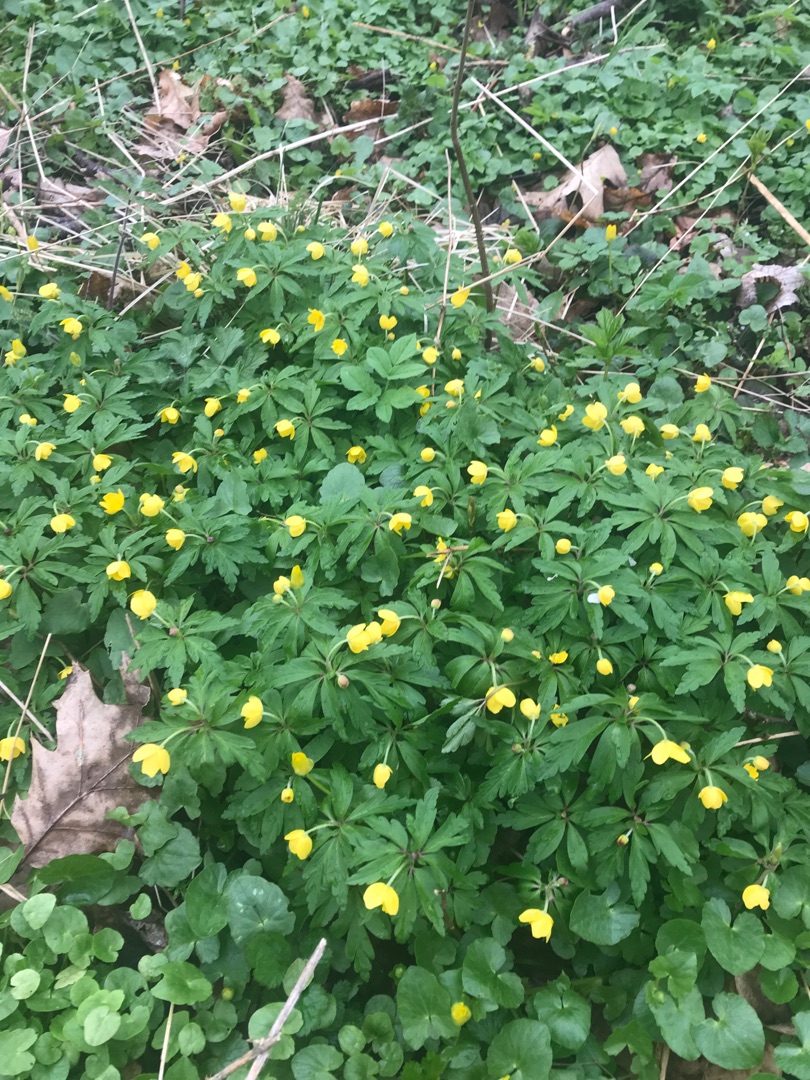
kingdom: Plantae
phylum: Tracheophyta
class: Magnoliopsida
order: Ranunculales
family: Ranunculaceae
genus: Anemone
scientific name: Anemone ranunculoides
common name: Gul anemone
